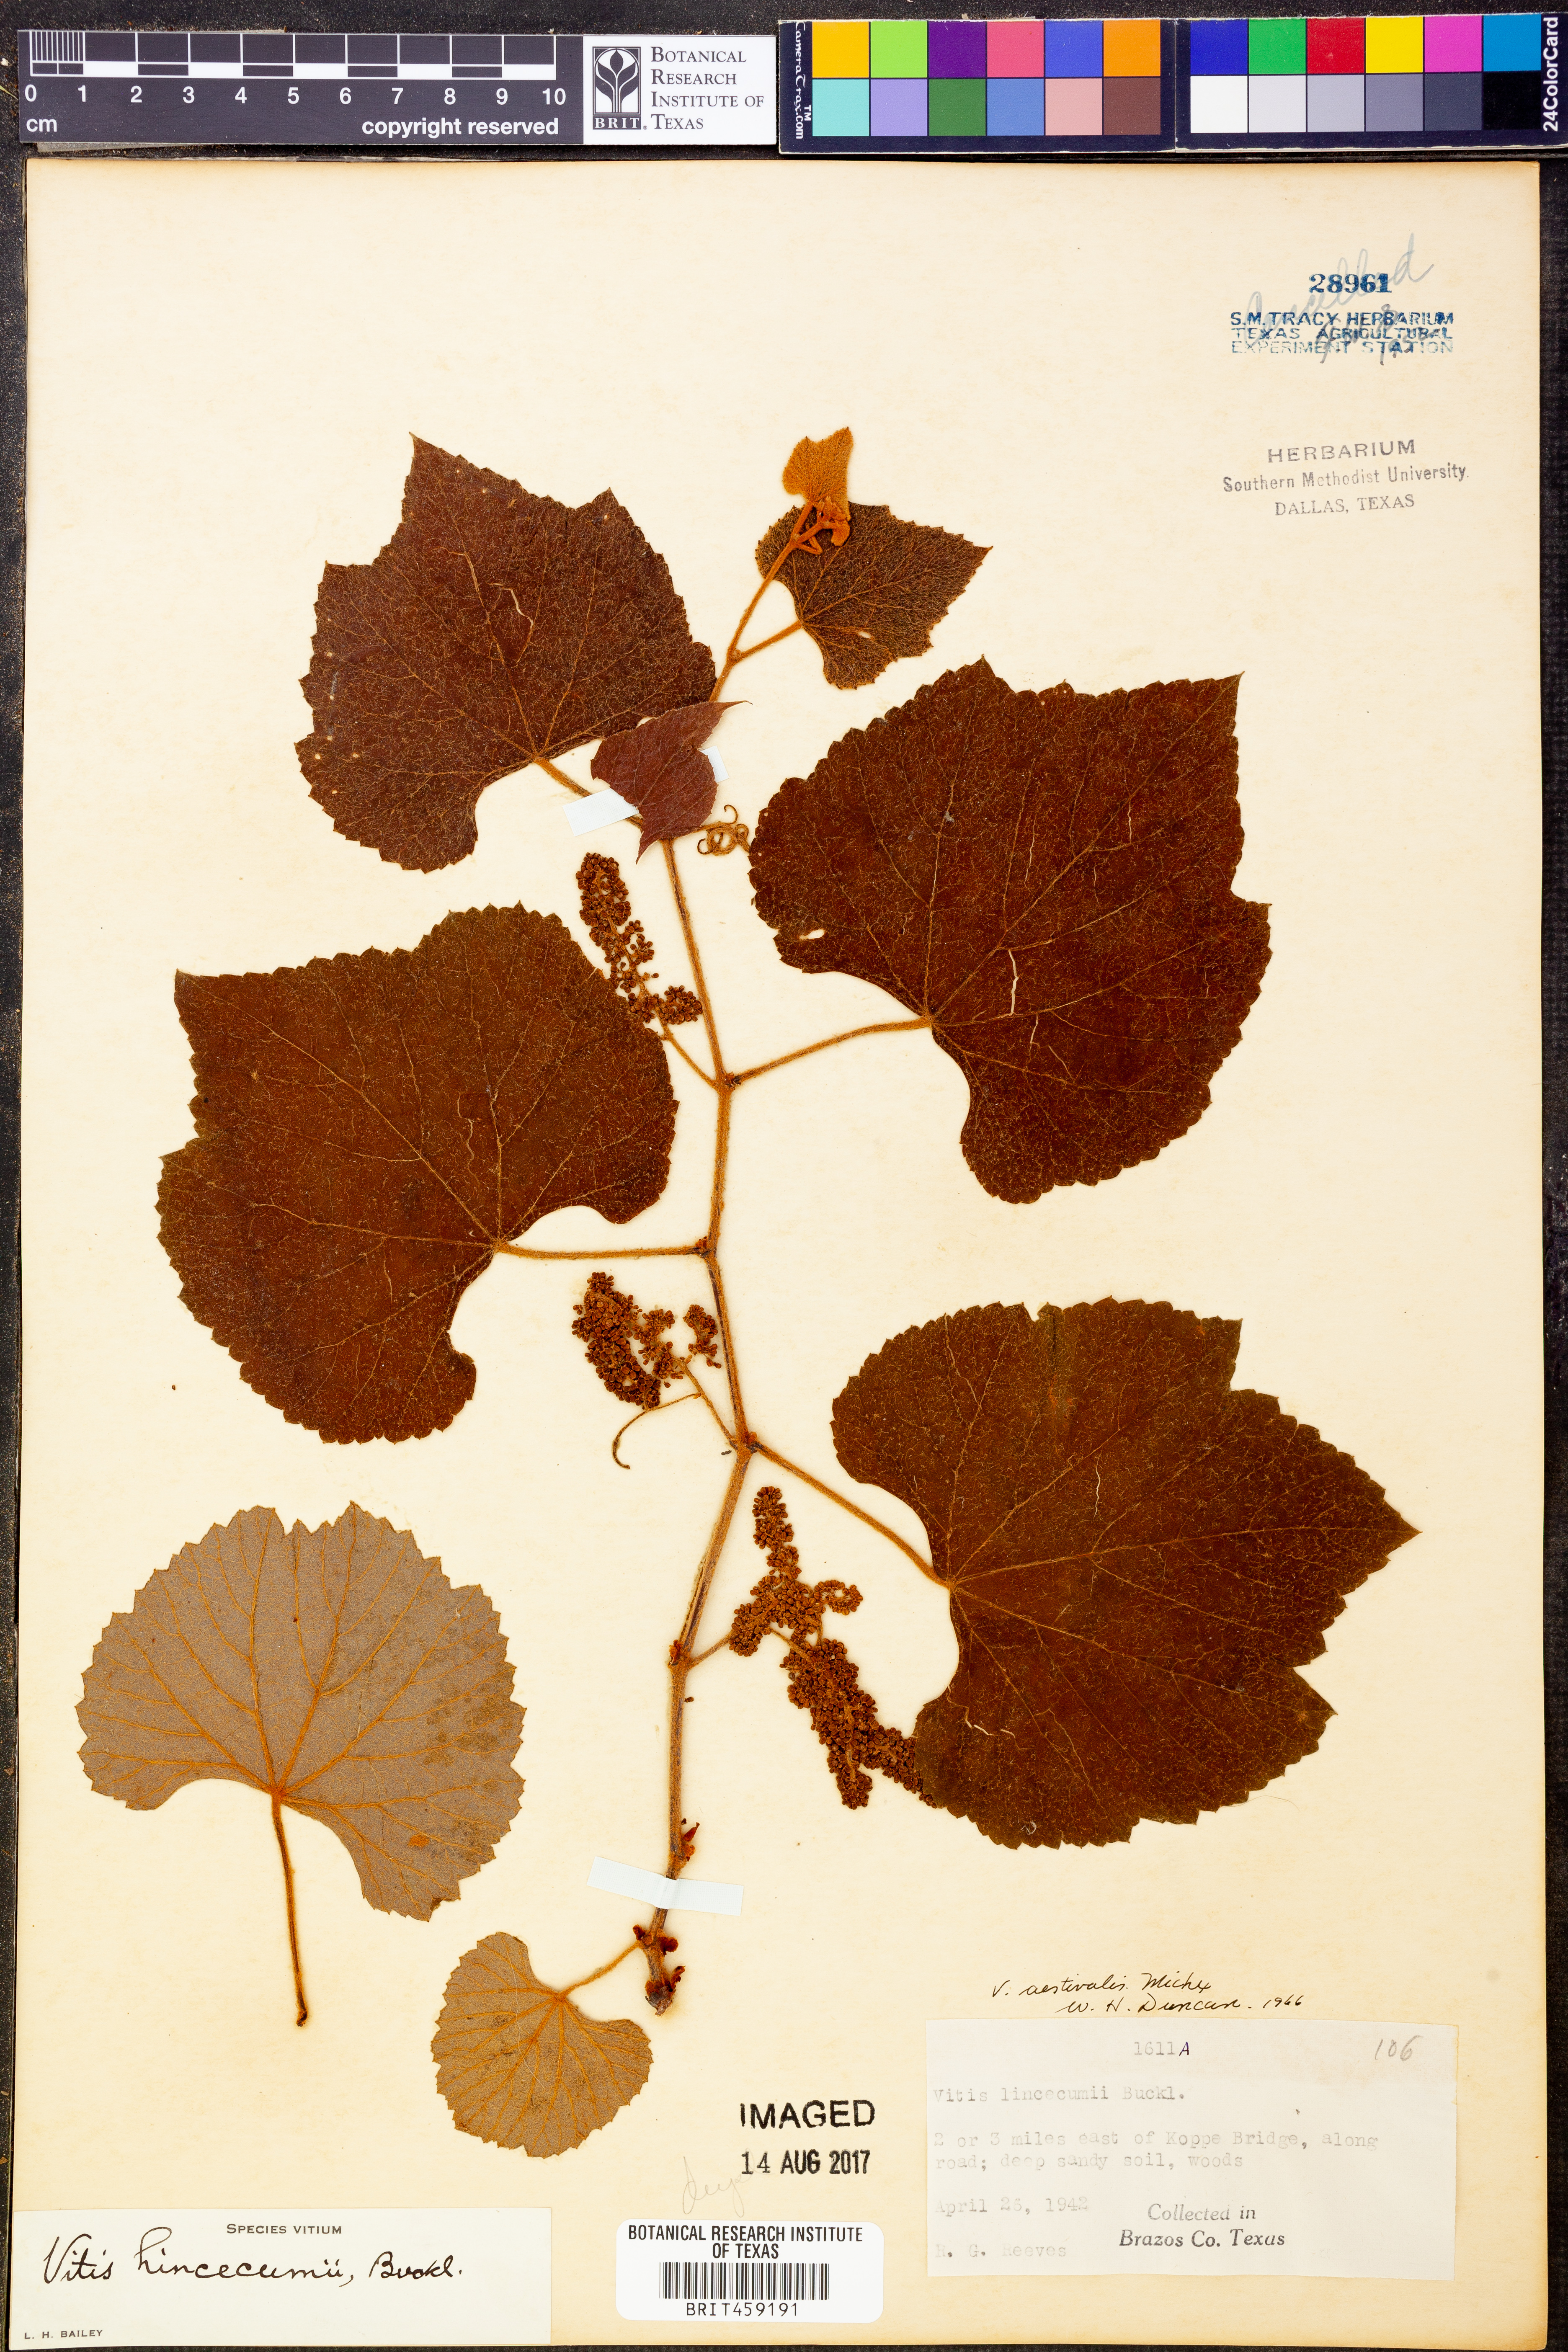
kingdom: Plantae
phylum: Tracheophyta
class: Magnoliopsida
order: Vitales
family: Vitaceae
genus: Vitis
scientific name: Vitis aestivalis
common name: Pigeon grape
